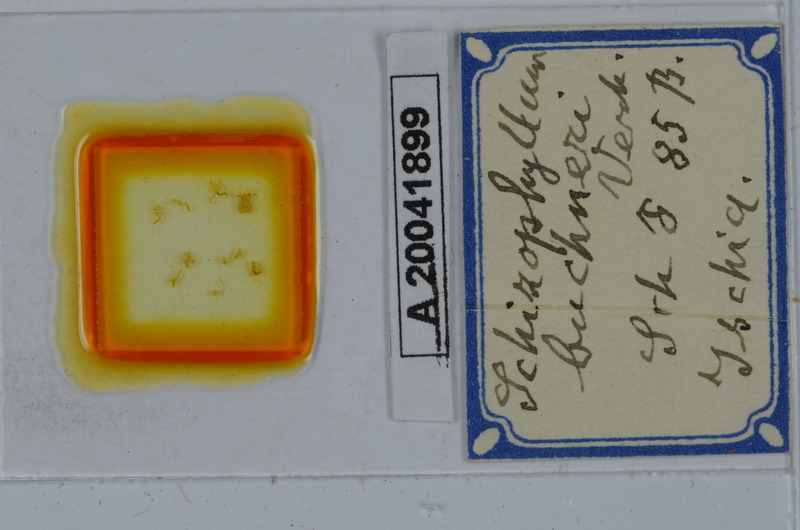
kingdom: Animalia
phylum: Arthropoda
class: Diplopoda
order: Julida
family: Julidae
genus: Schizophyllum
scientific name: Schizophyllum buchneri
